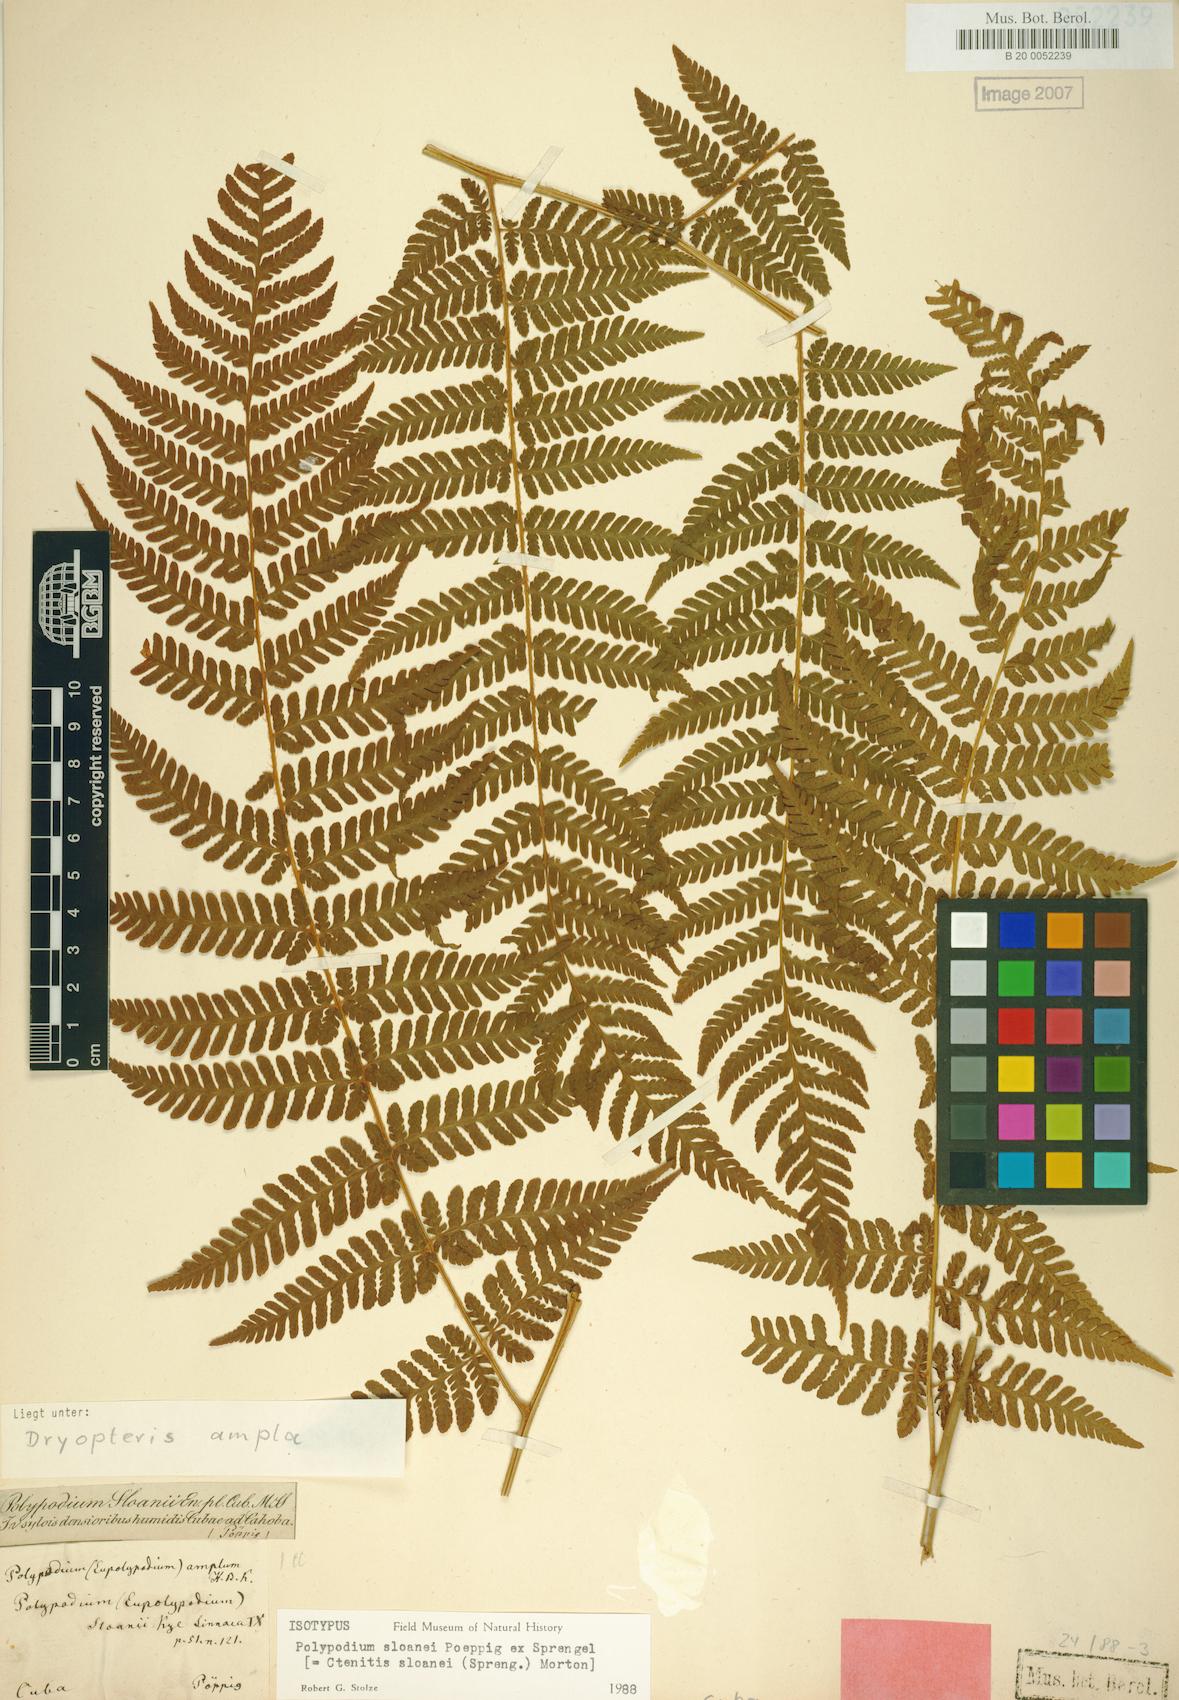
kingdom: Plantae
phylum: Tracheophyta
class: Polypodiopsida
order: Polypodiales
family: Dryopteridaceae
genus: Ctenitis
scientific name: Ctenitis sloanei
